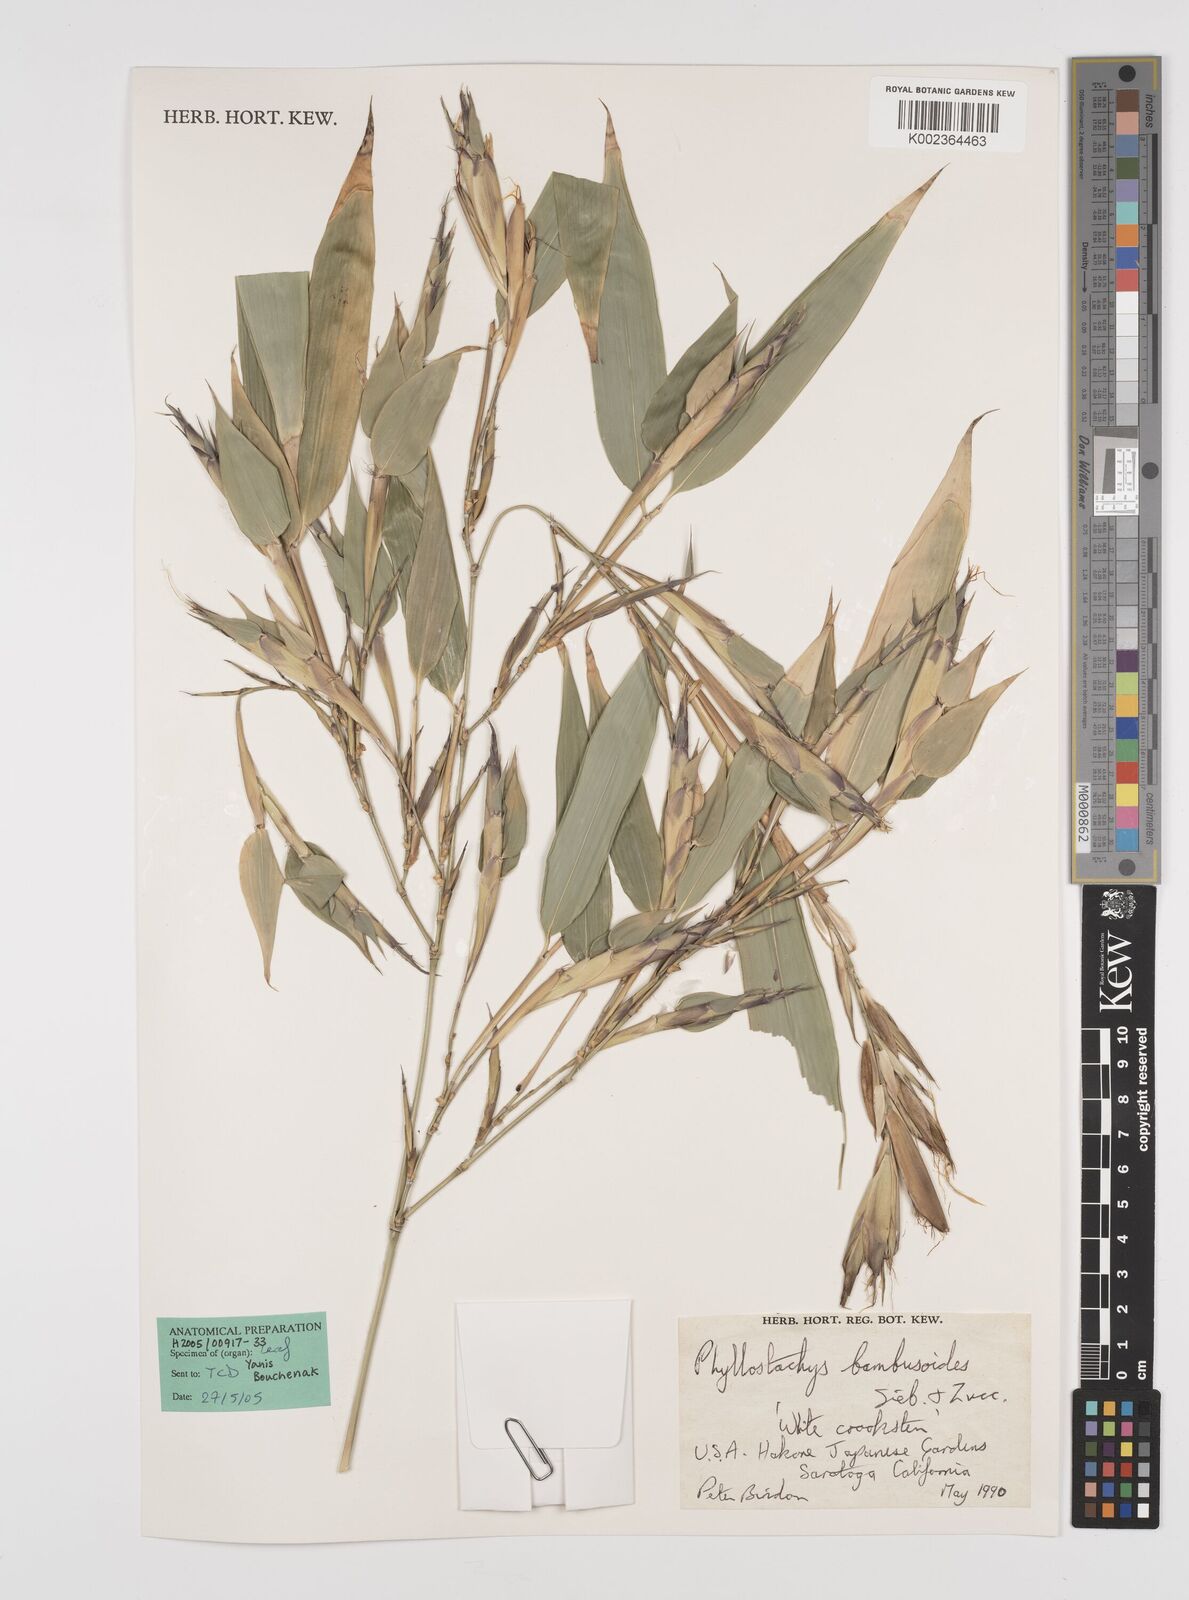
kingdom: Plantae
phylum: Tracheophyta
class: Liliopsida
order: Poales
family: Poaceae
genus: Phyllostachys
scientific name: Phyllostachys reticulata
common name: Bamboo
